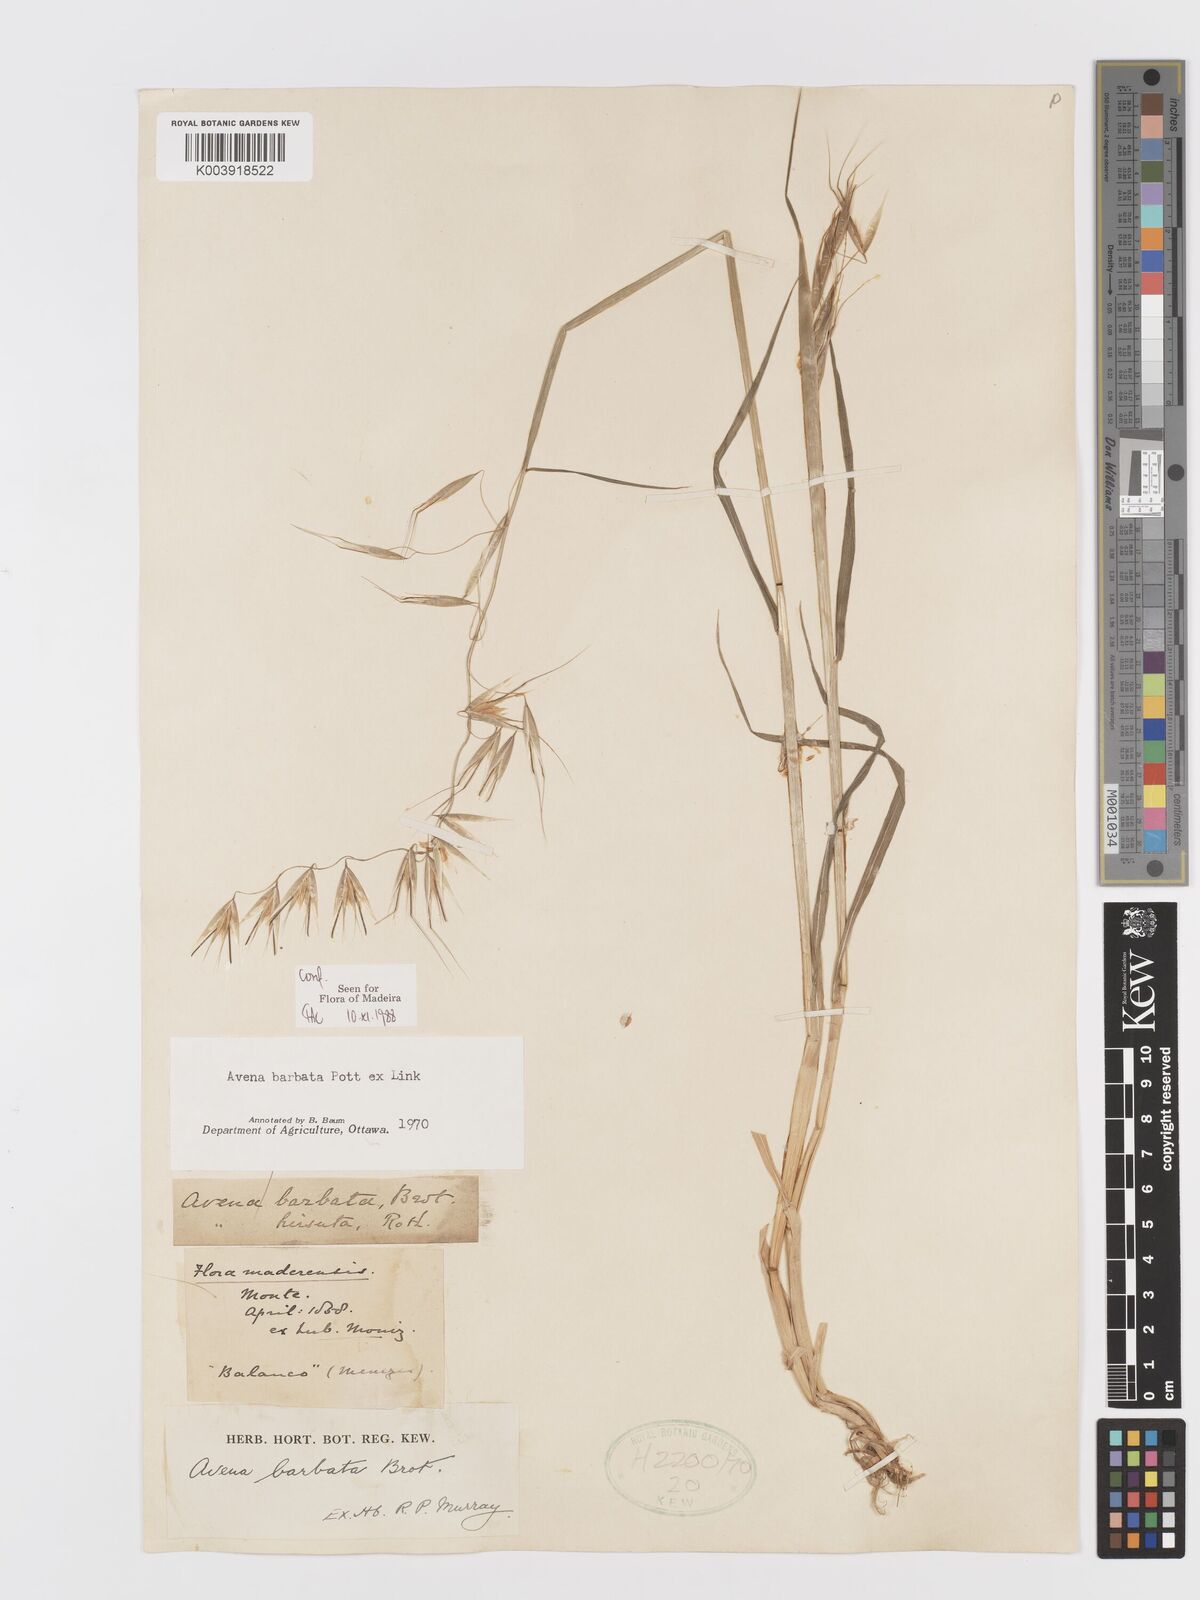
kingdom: Plantae
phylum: Tracheophyta
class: Liliopsida
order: Poales
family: Poaceae
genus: Avena
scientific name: Avena
